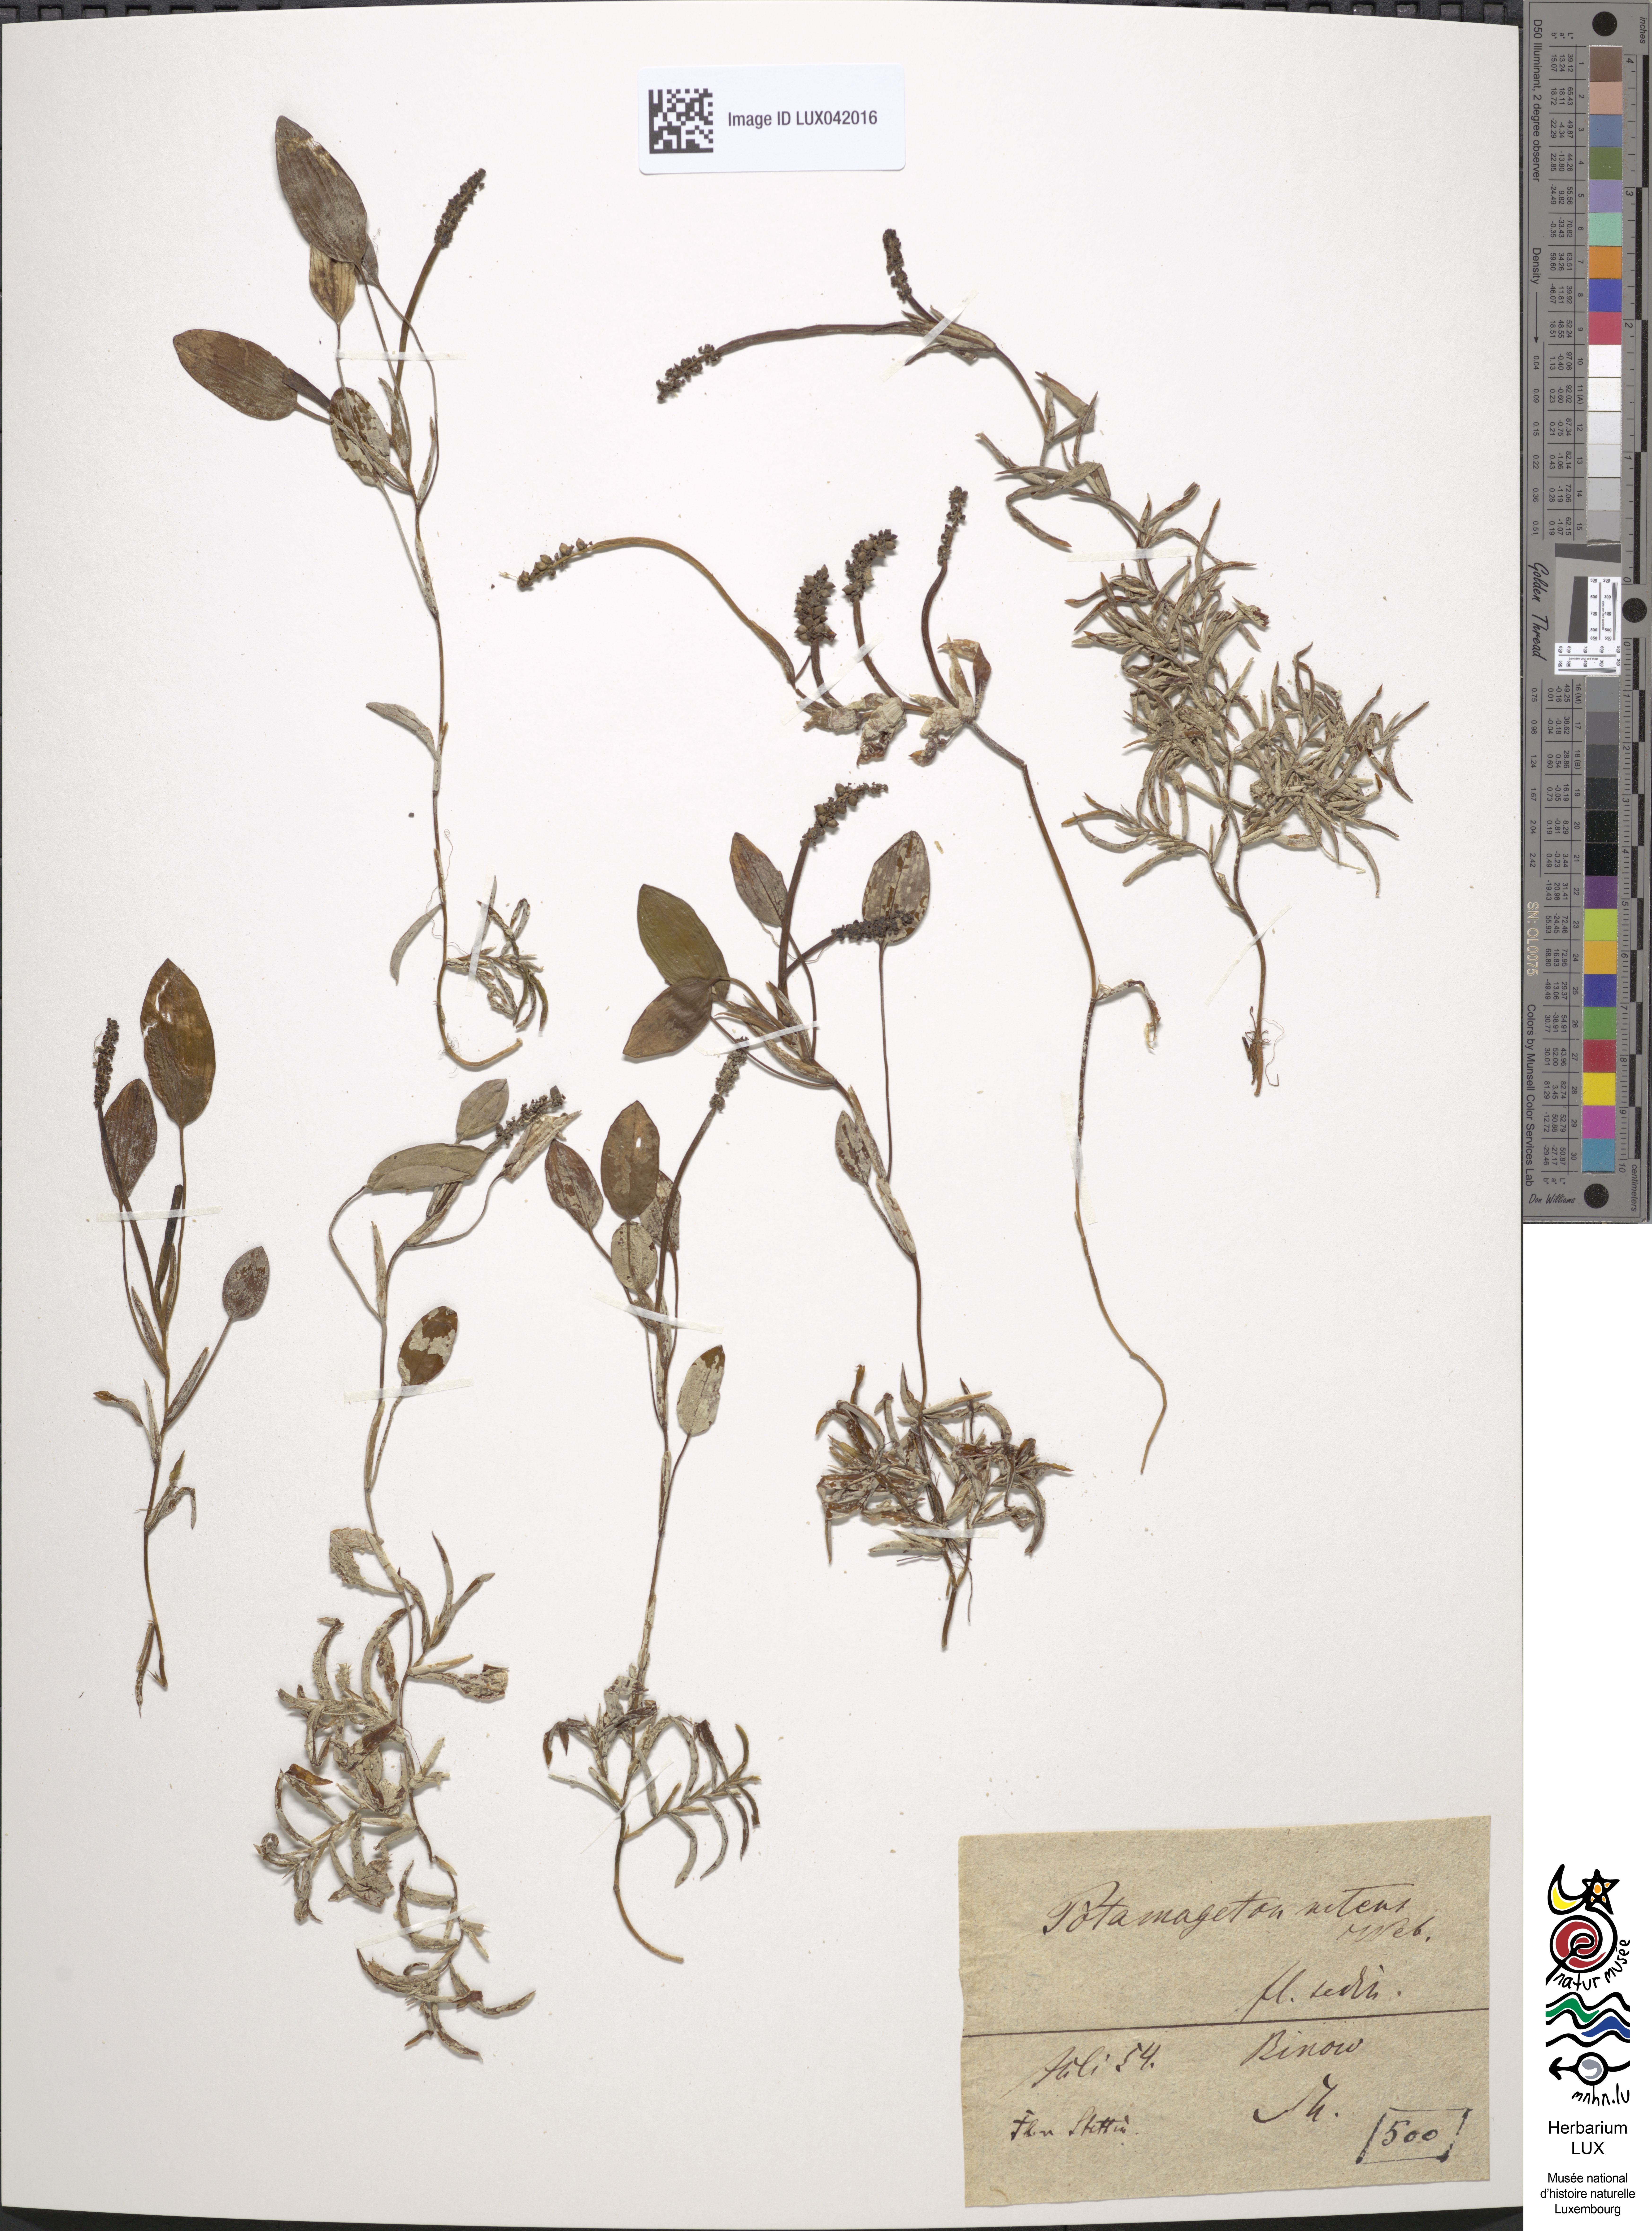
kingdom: Plantae
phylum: Tracheophyta
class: Liliopsida
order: Alismatales
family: Potamogetonaceae
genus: Potamogeton
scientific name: Potamogeton nitens
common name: Pondweed
